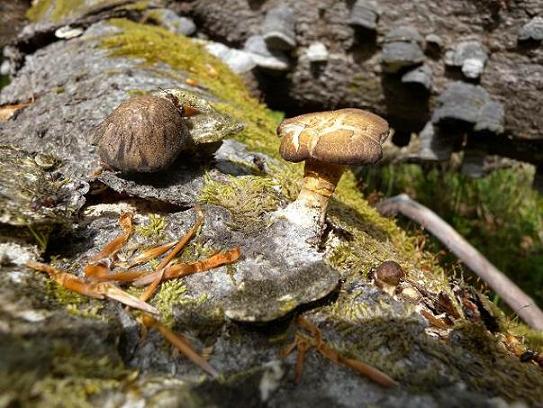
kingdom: Fungi
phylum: Basidiomycota
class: Agaricomycetes
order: Polyporales
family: Polyporaceae
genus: Lentinus
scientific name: Lentinus substrictus
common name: forårs-stilkporesvamp
